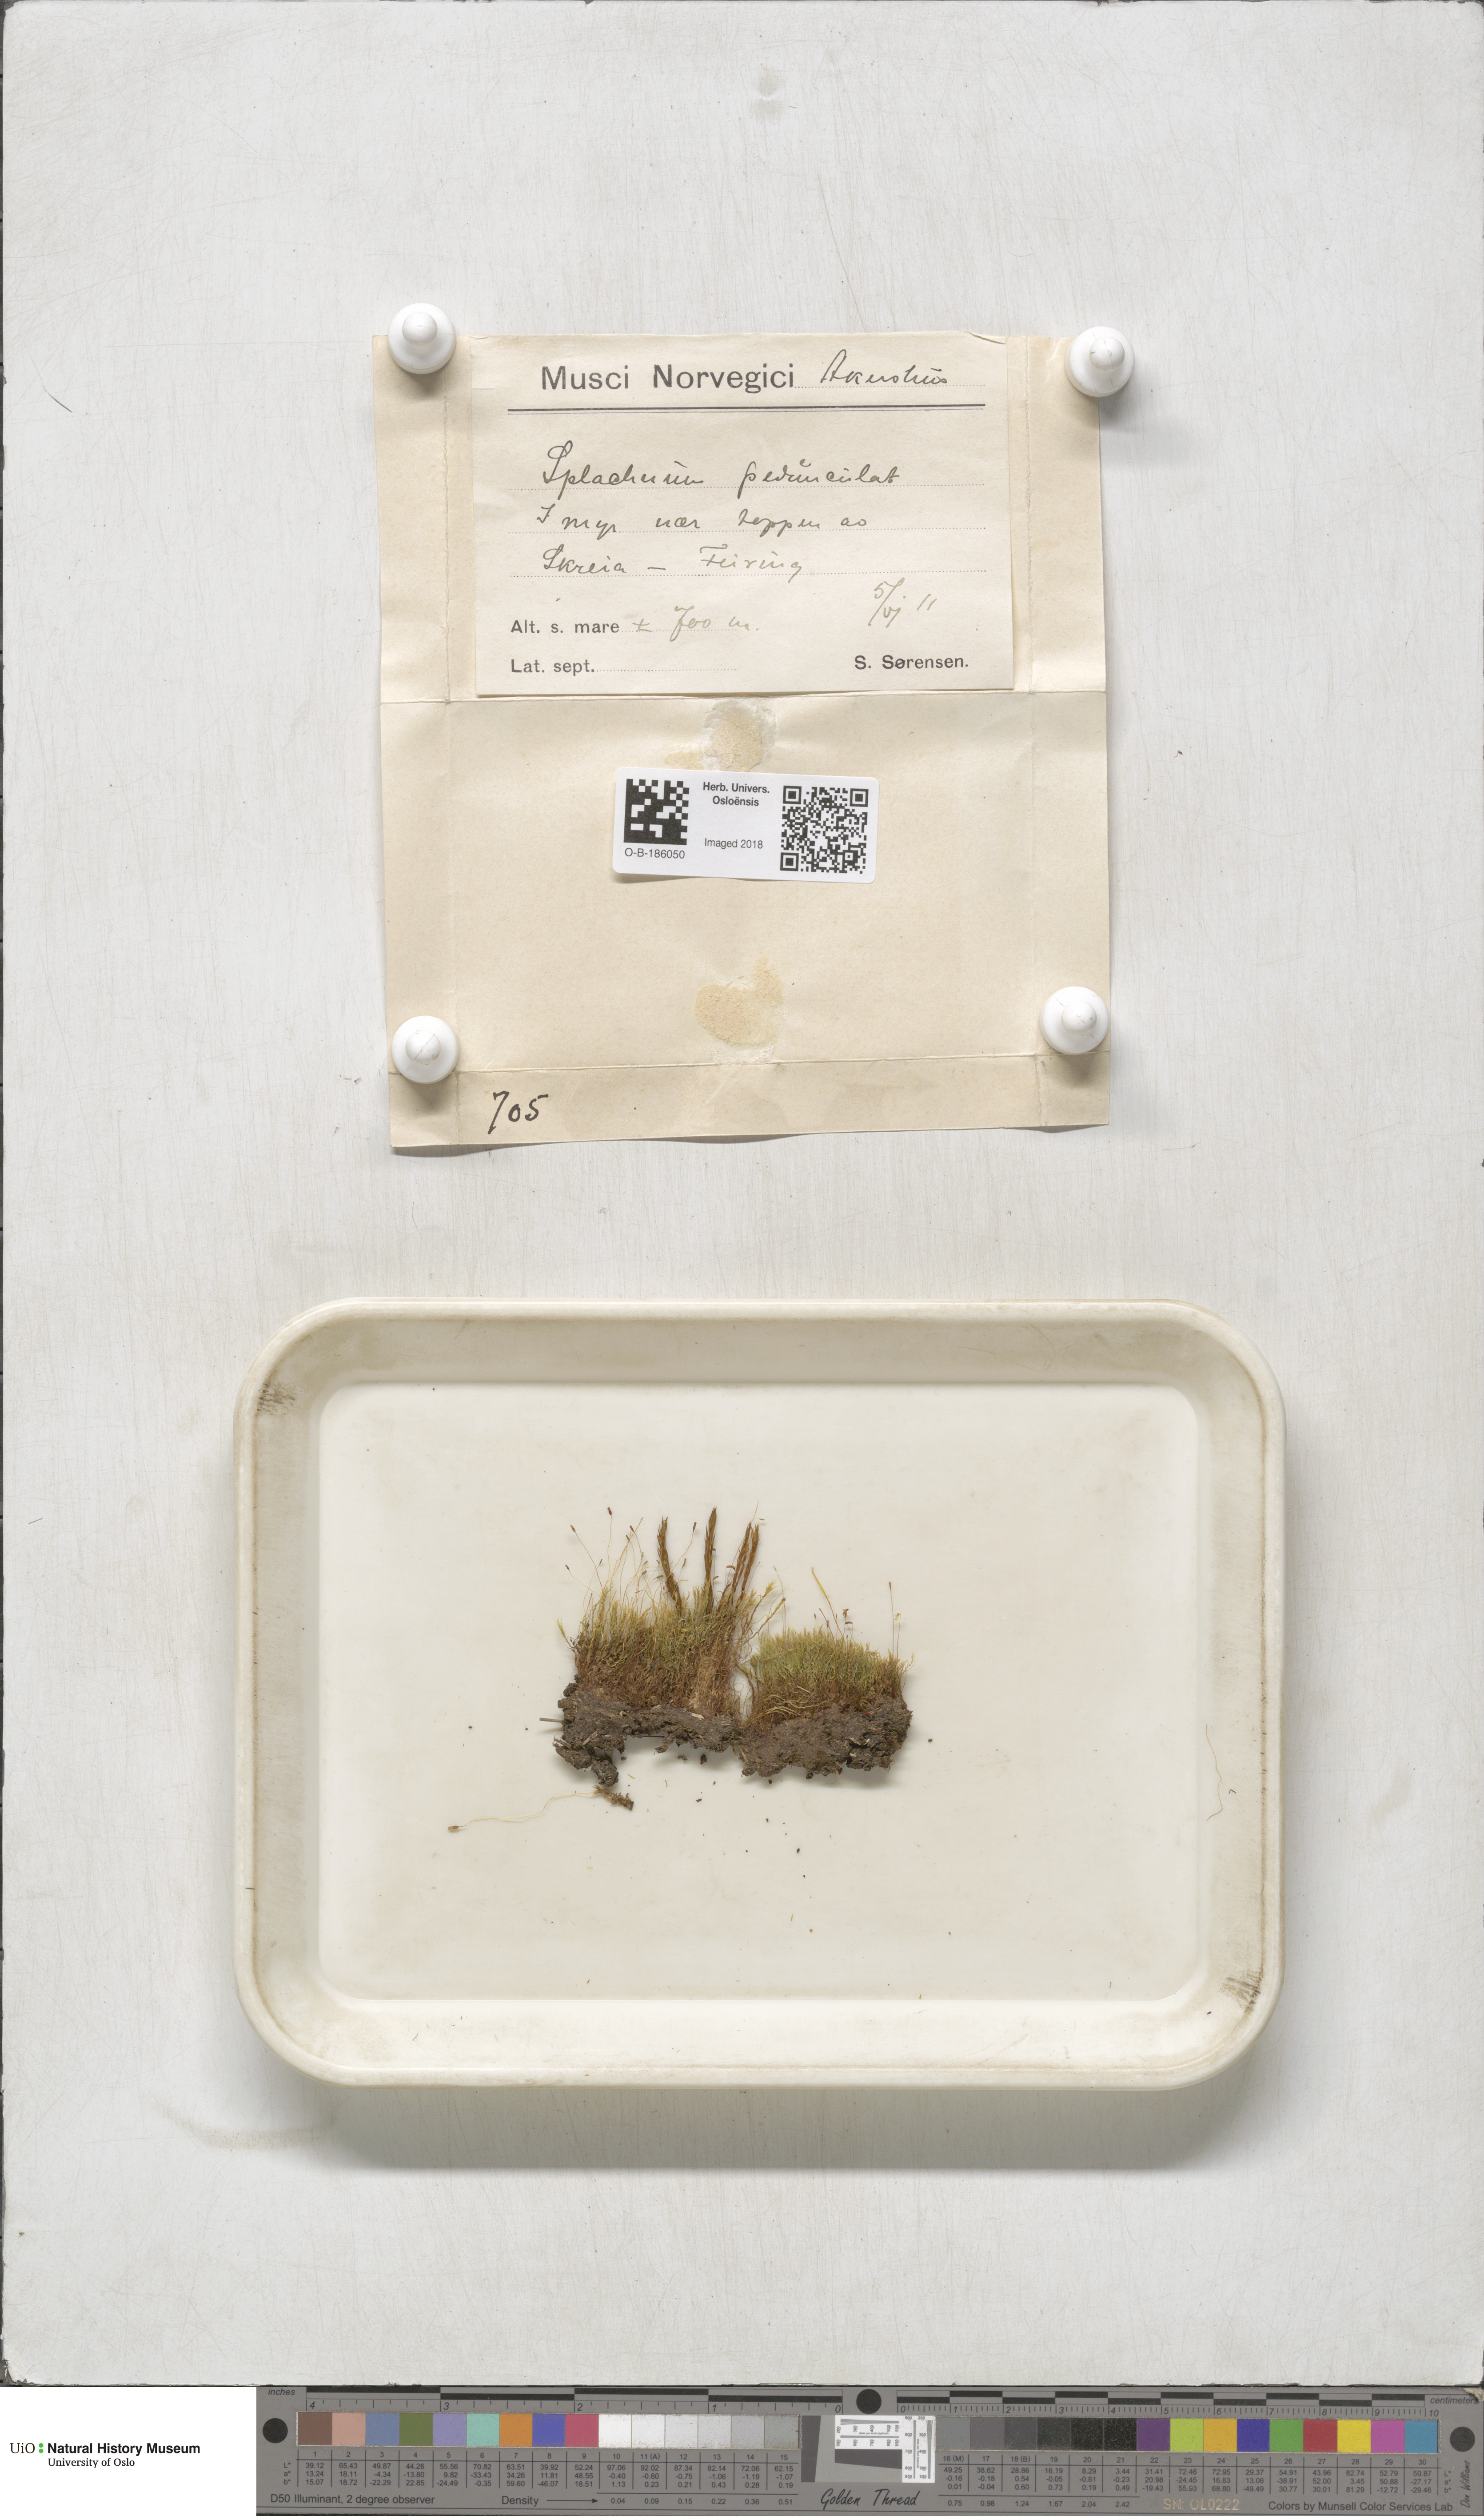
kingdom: Plantae
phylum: Bryophyta
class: Bryopsida
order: Splachnales
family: Splachnaceae
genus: Splachnum
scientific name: Splachnum sphaericum
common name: Round-fruited dung moss
